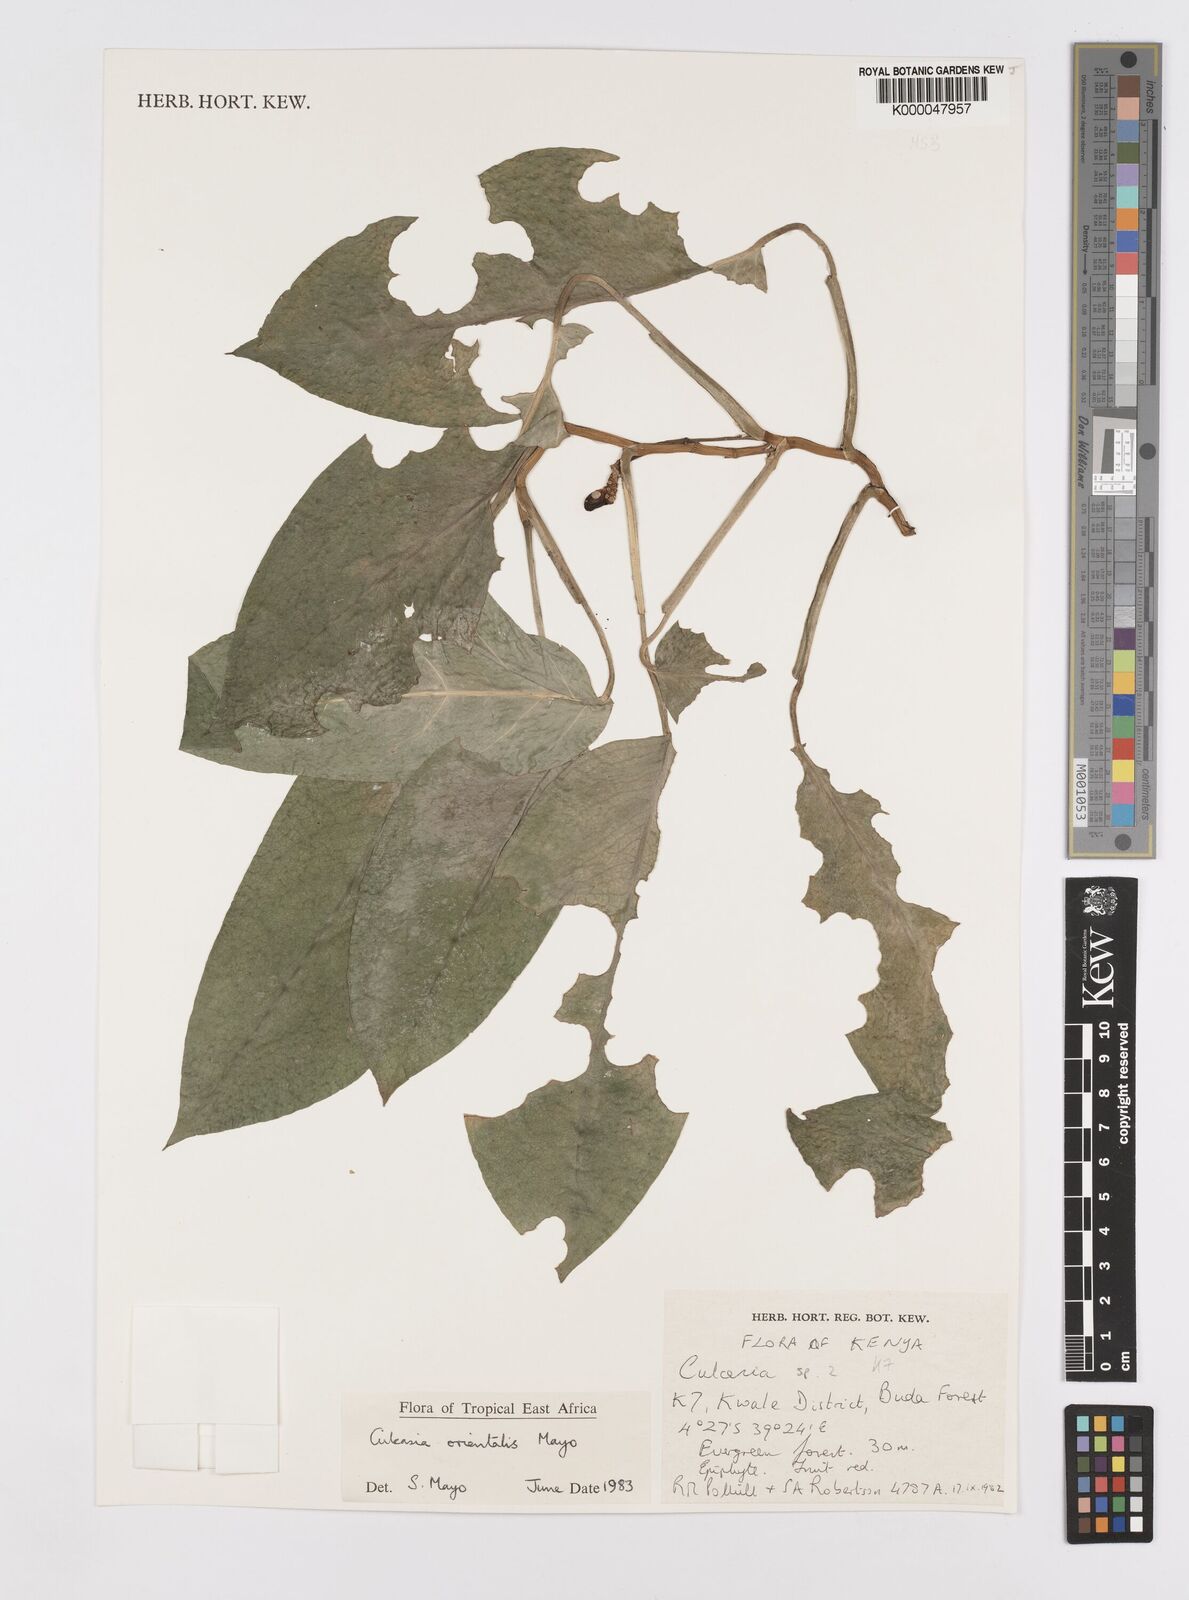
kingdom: Plantae
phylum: Tracheophyta
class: Liliopsida
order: Alismatales
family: Araceae
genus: Culcasia
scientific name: Culcasia orientalis
